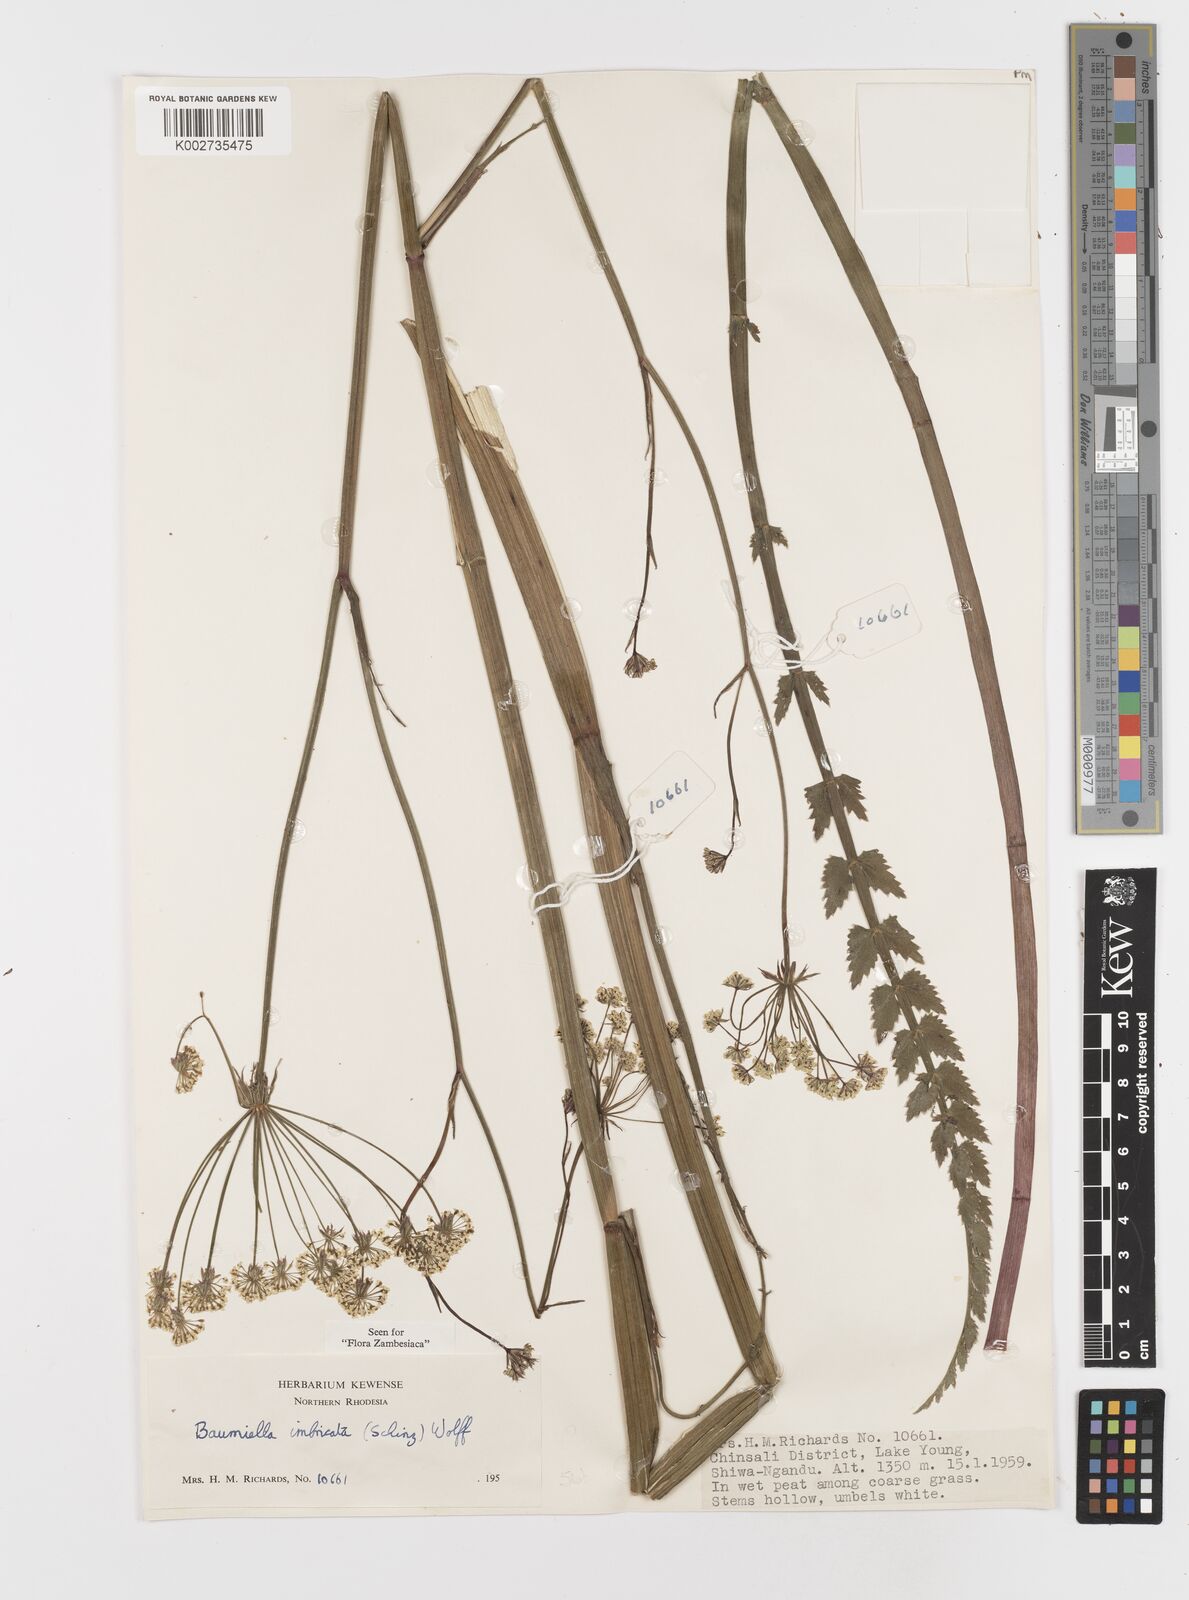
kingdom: Plantae
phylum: Tracheophyta
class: Magnoliopsida
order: Apiales
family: Apiaceae
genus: Berula
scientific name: Berula imbricata
